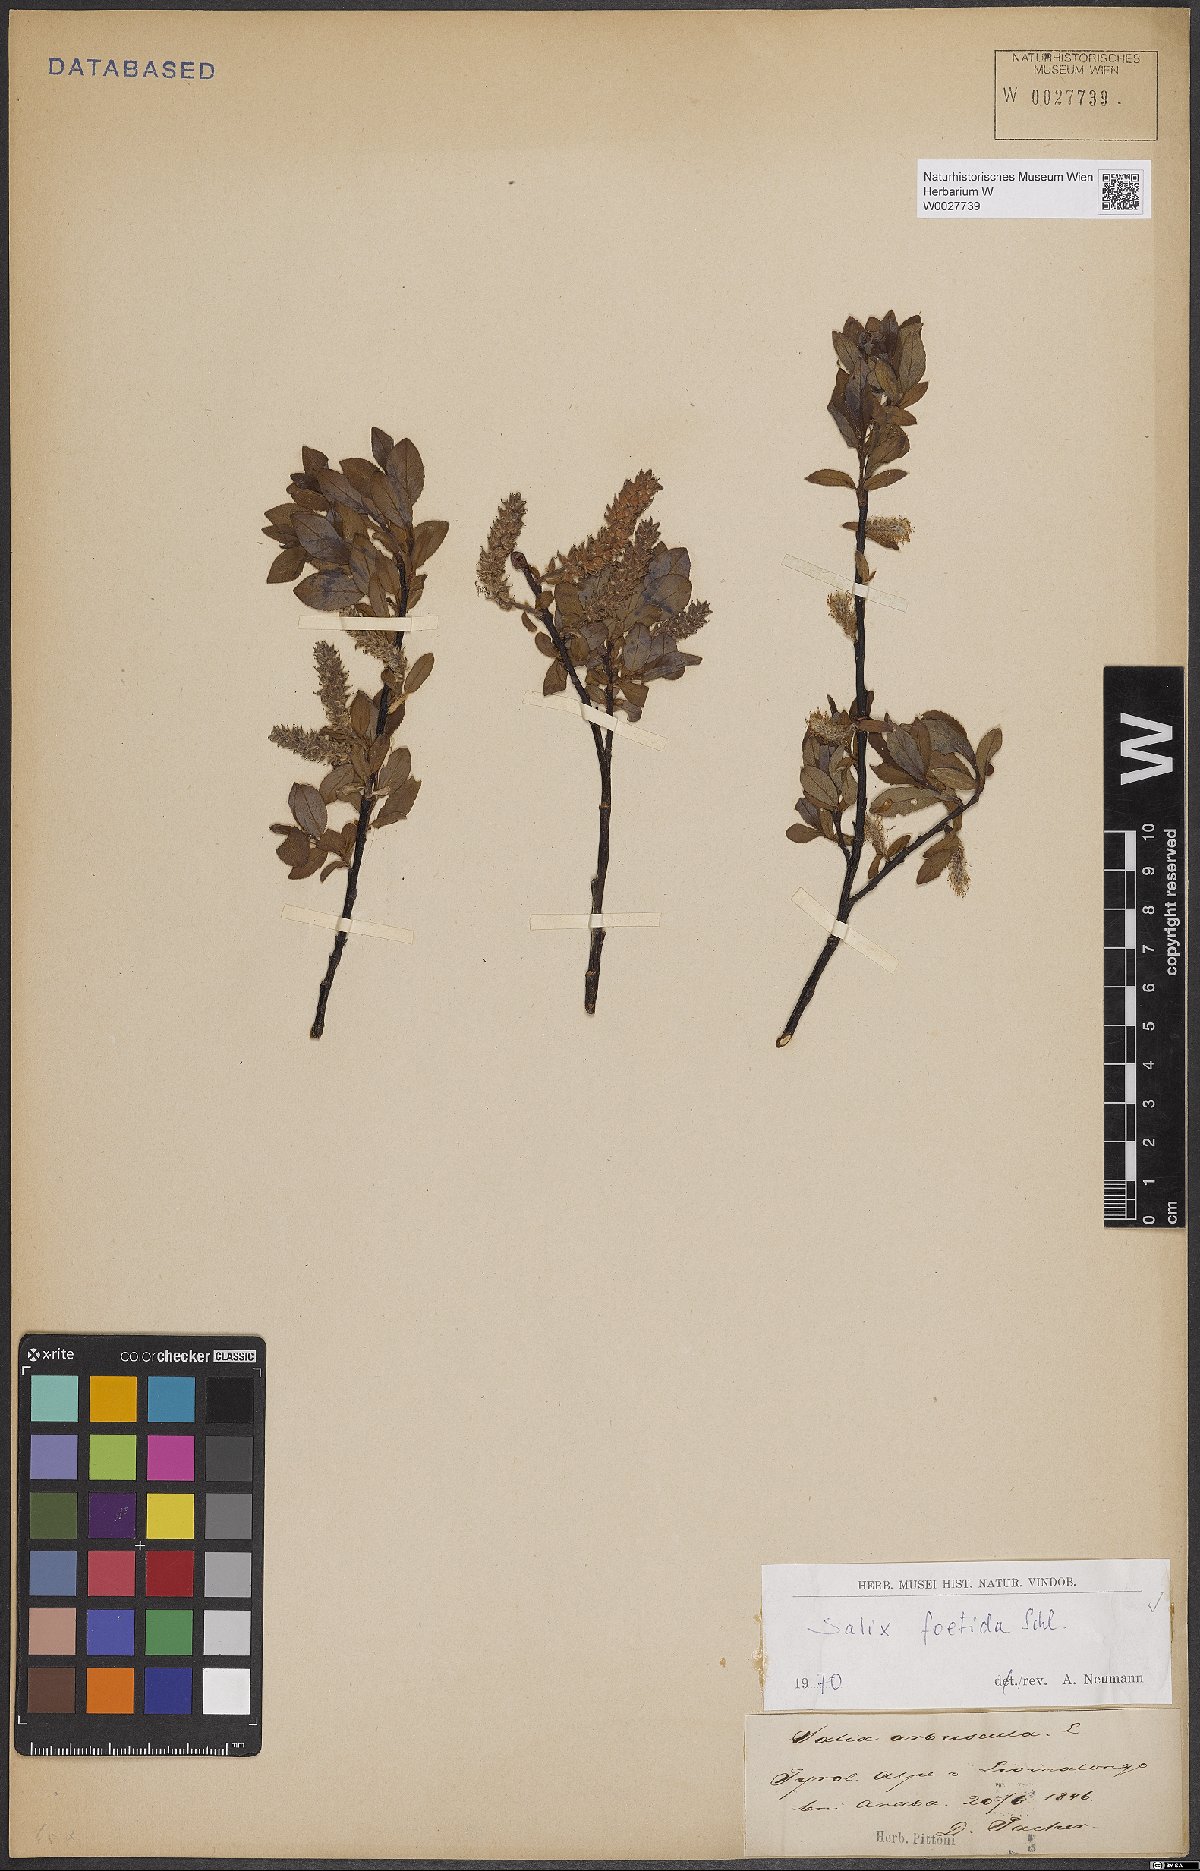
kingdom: Plantae
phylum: Tracheophyta
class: Magnoliopsida
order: Malpighiales
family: Salicaceae
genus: Salix
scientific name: Salix foetida
